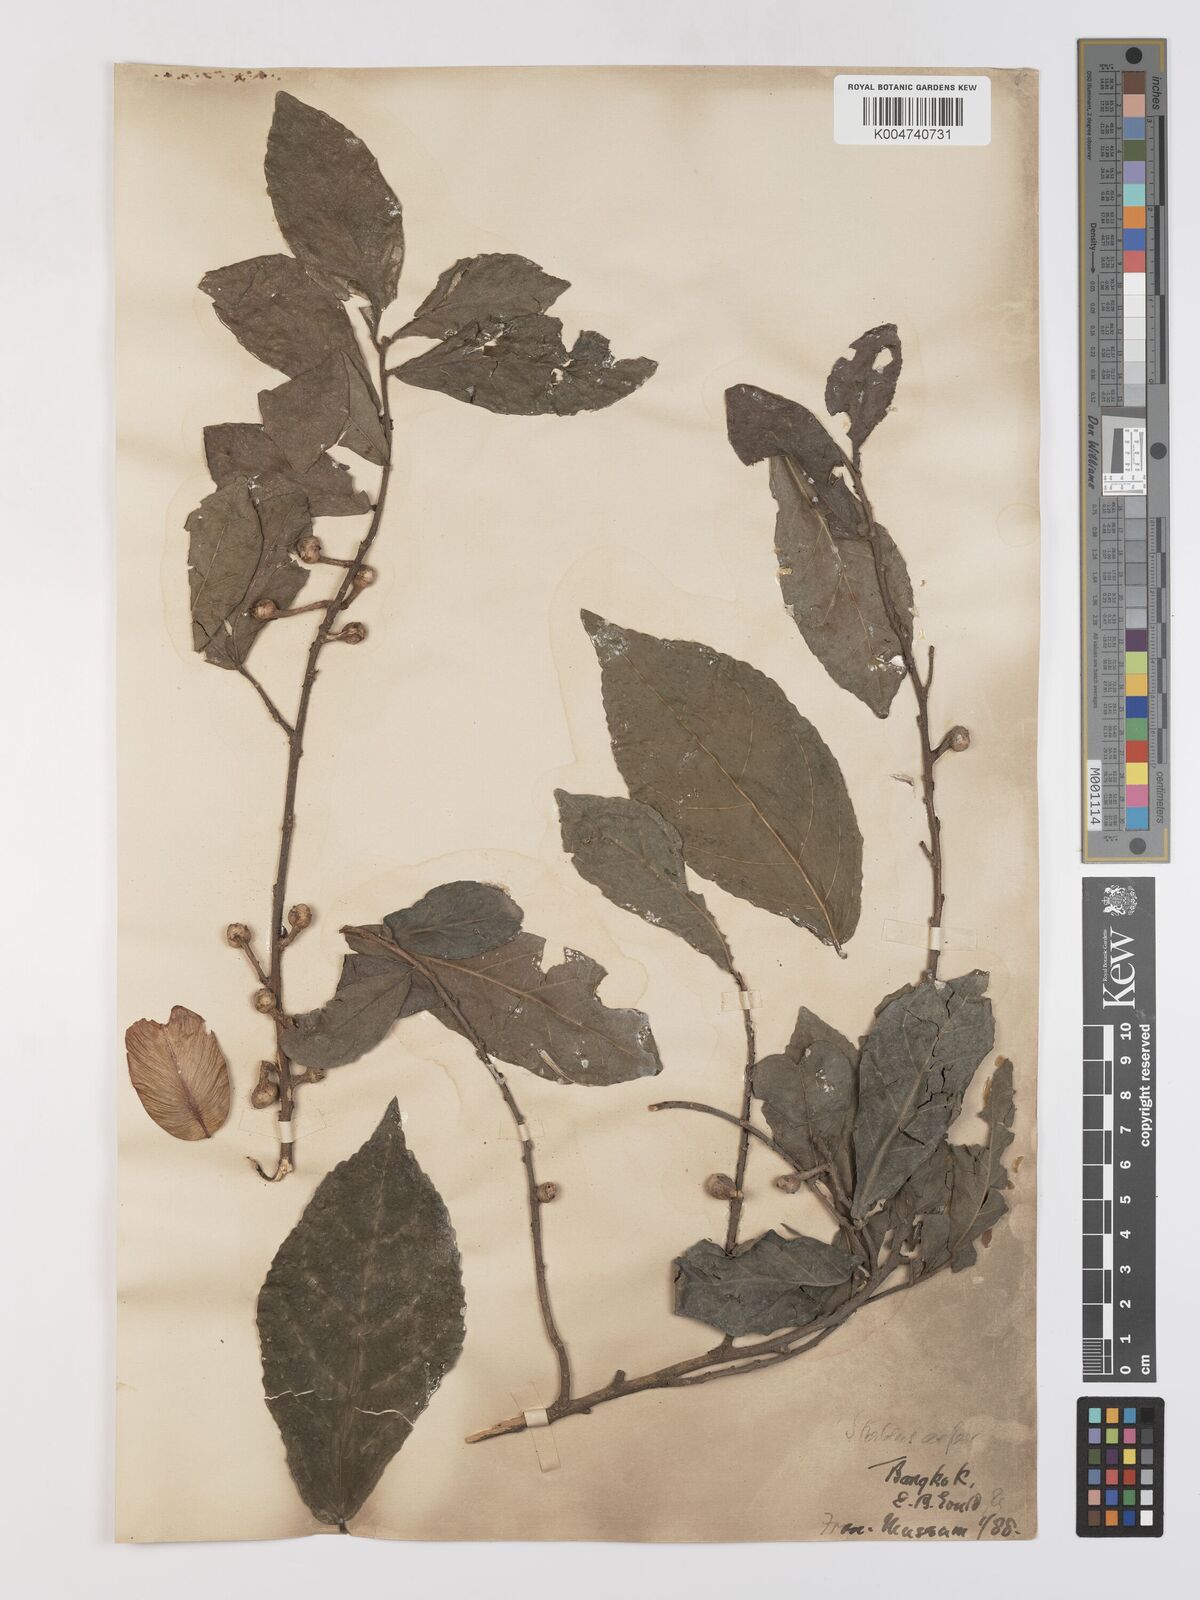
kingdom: Plantae
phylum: Tracheophyta
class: Magnoliopsida
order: Rosales
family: Moraceae
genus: Streblus
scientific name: Streblus asper
